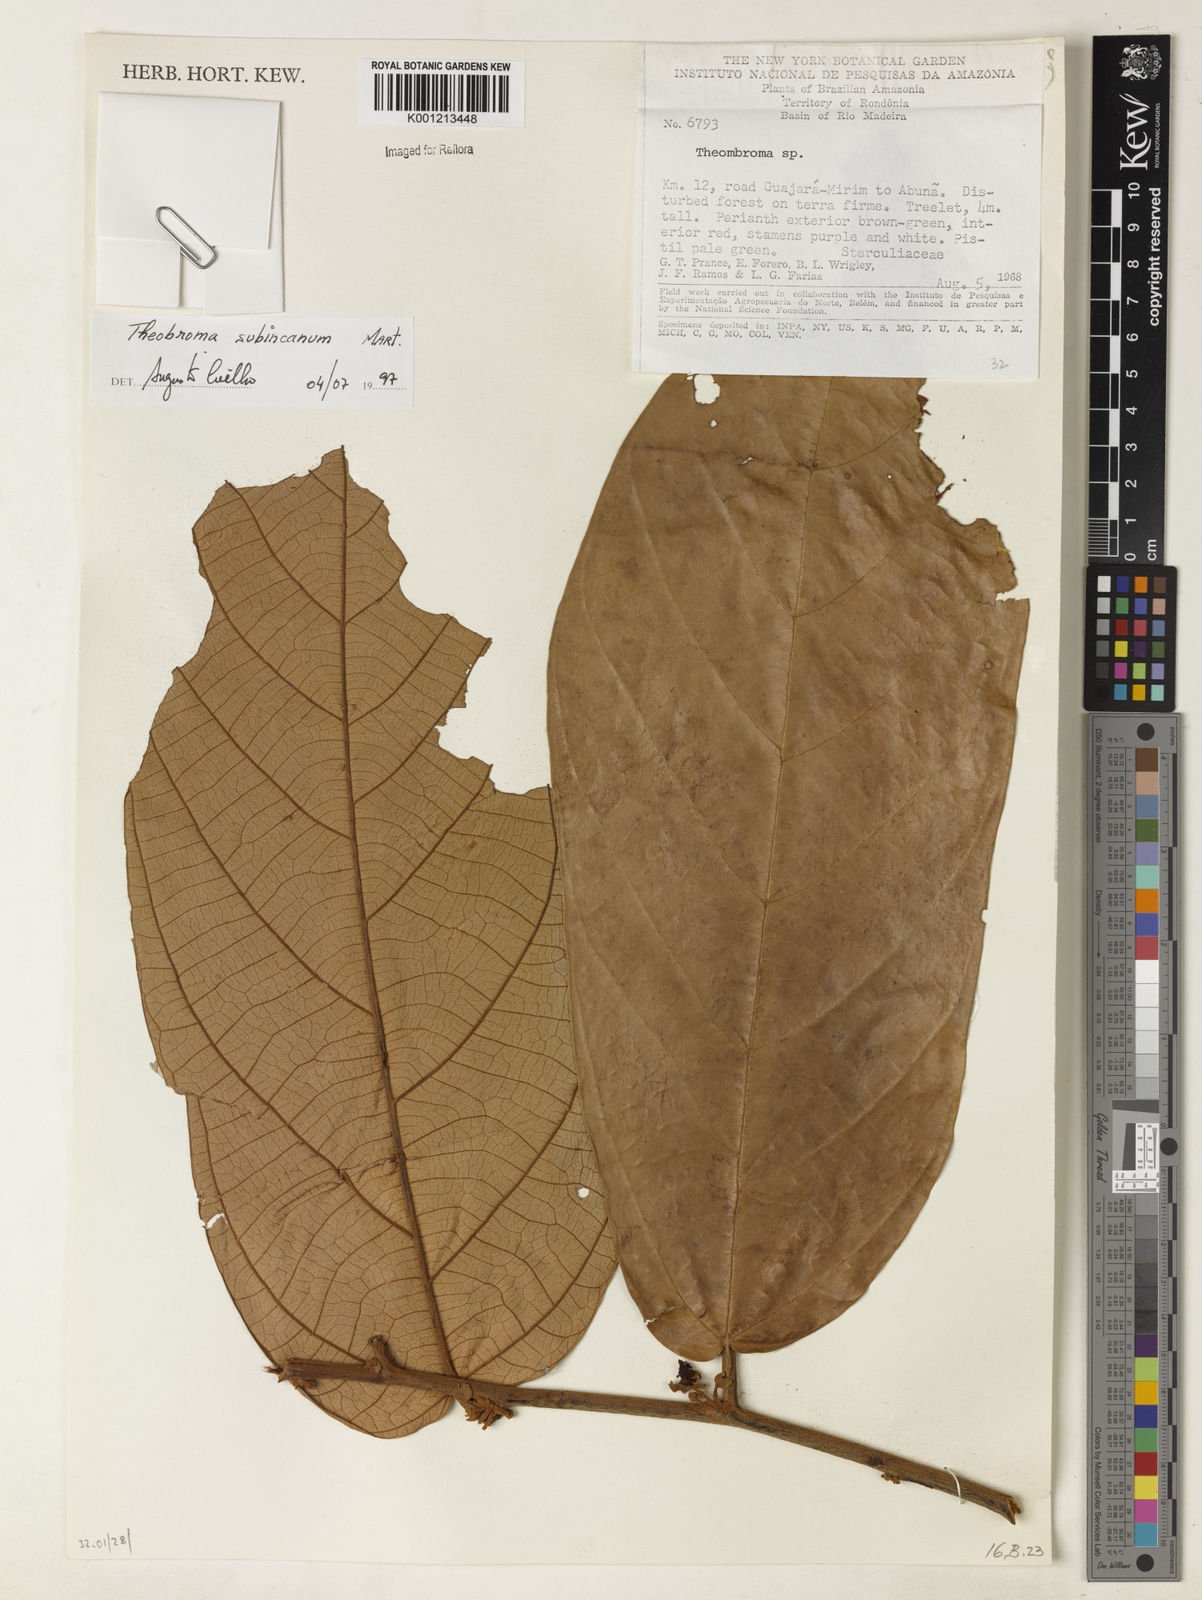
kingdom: Plantae
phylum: Tracheophyta
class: Magnoliopsida
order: Malvales
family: Malvaceae
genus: Theobroma
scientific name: Theobroma subincanum
